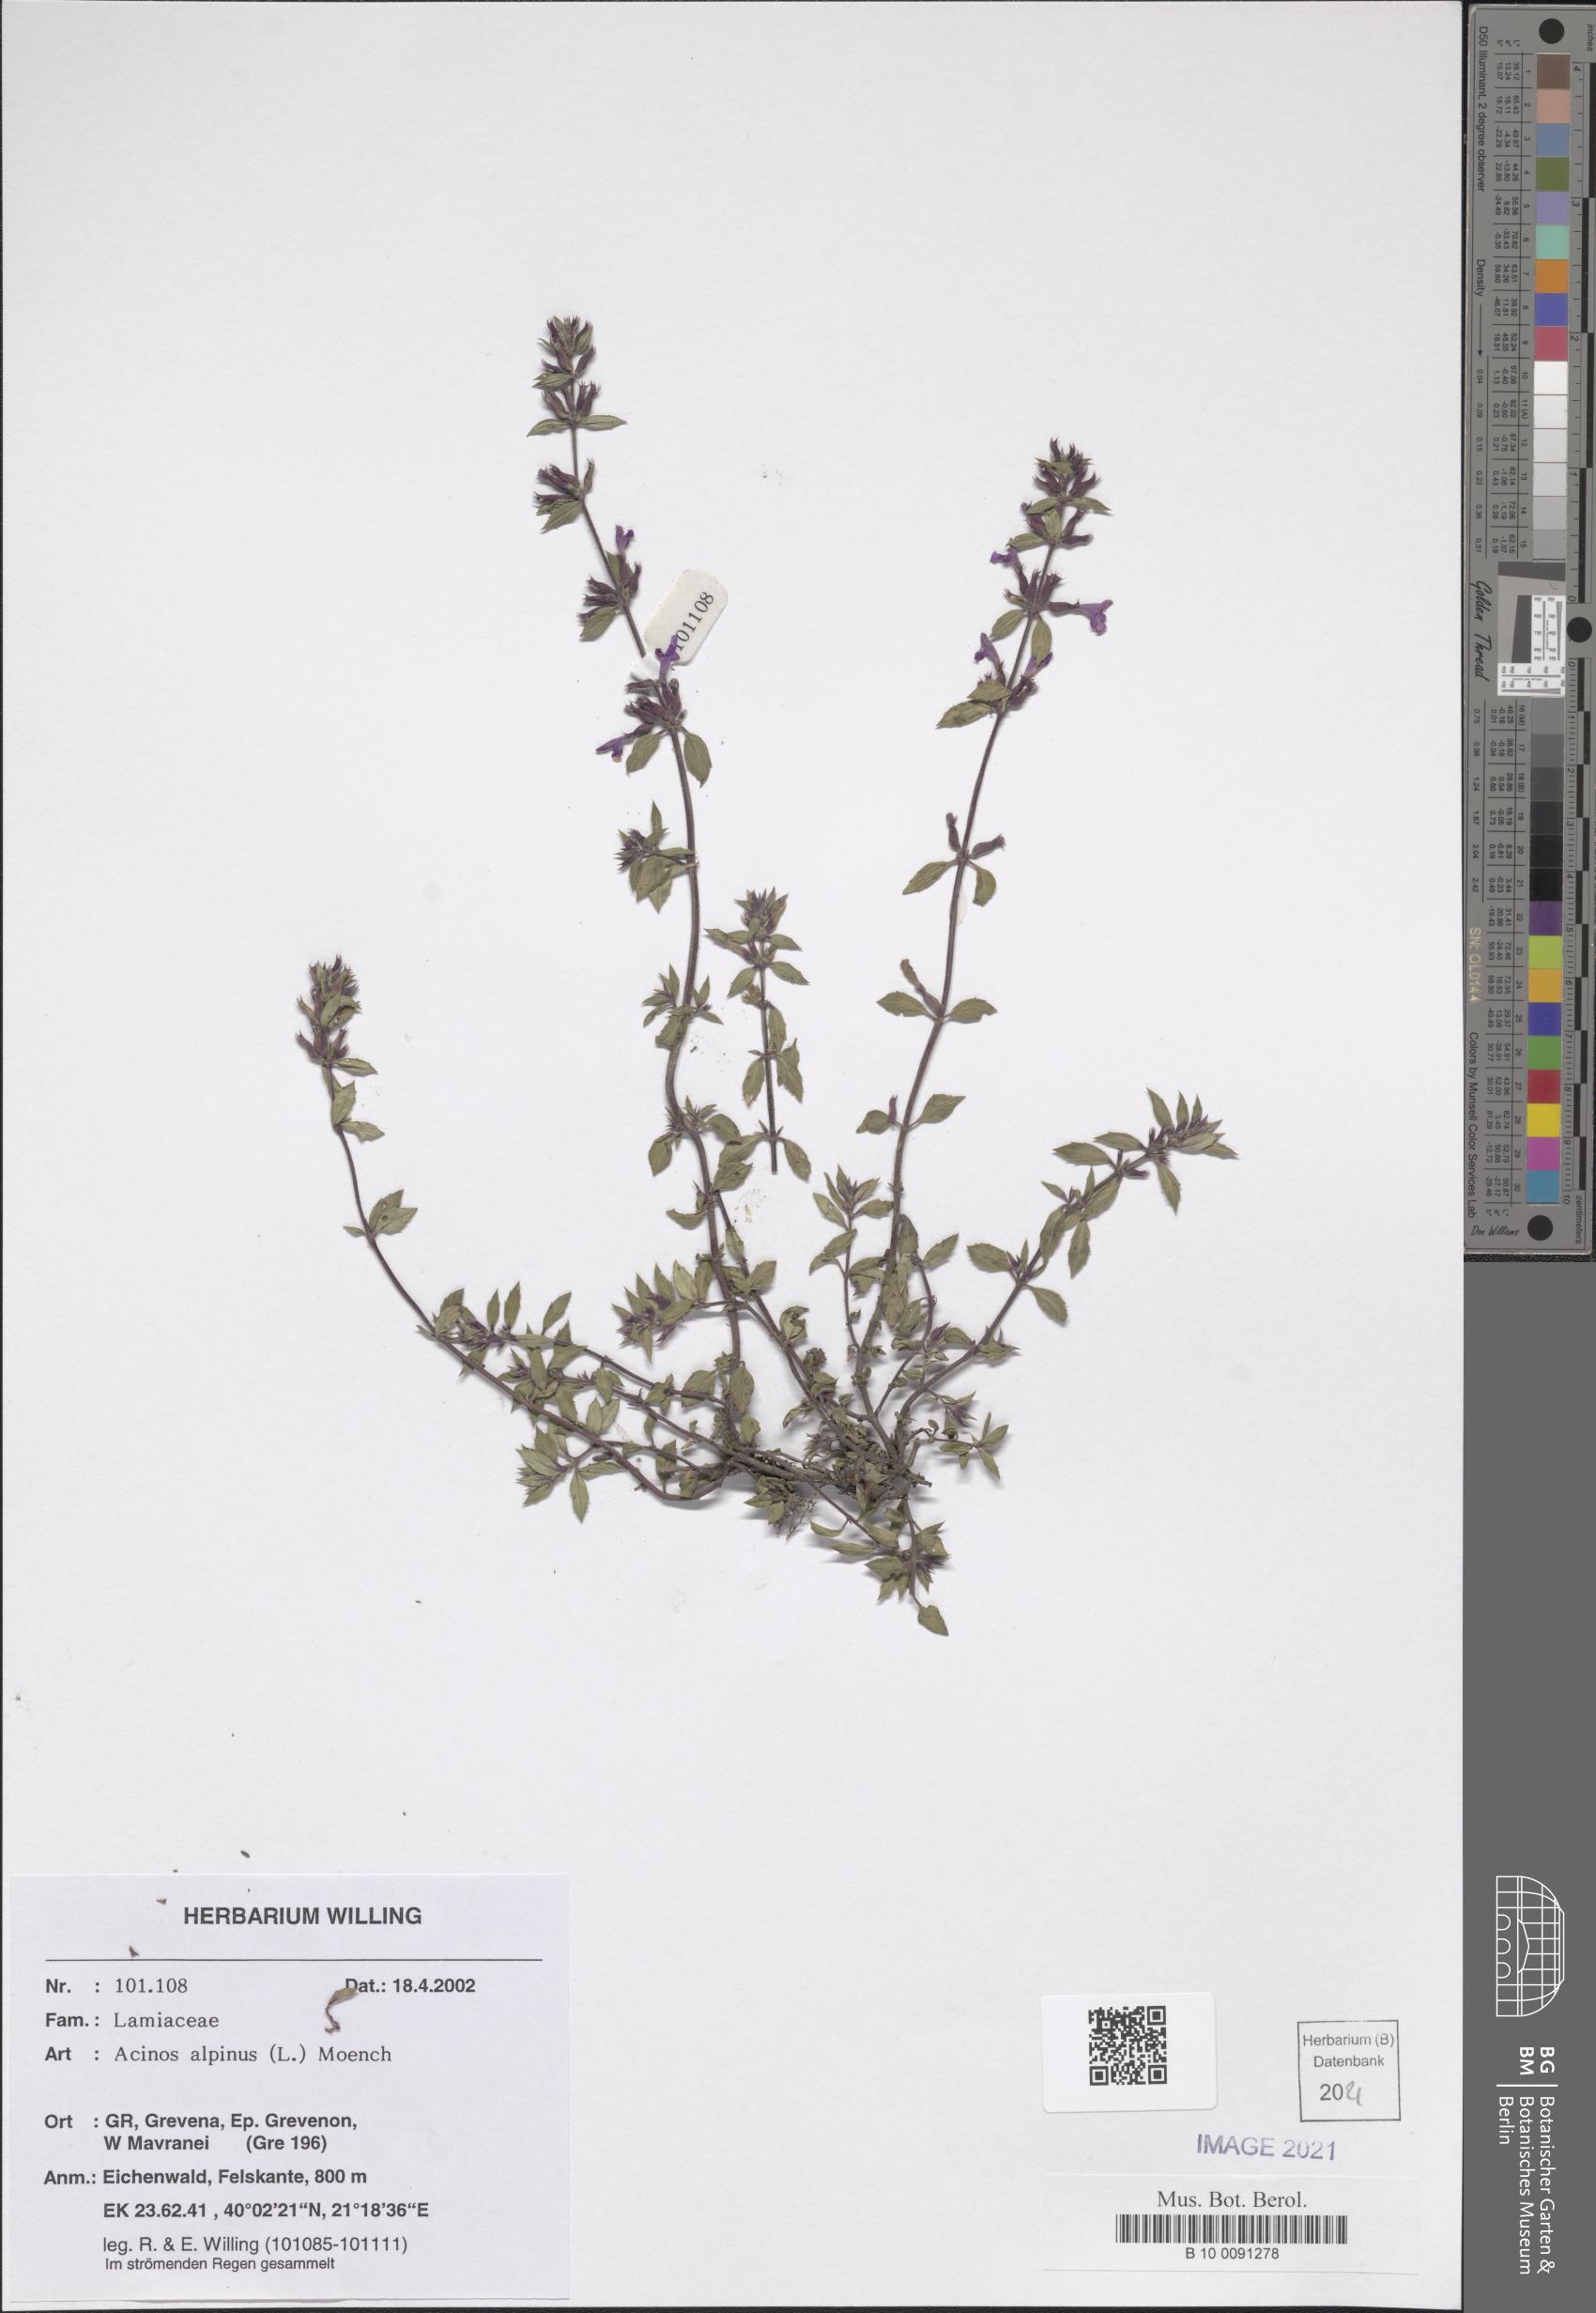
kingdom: Plantae
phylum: Tracheophyta
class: Magnoliopsida
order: Lamiales
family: Lamiaceae
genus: Clinopodium
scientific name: Clinopodium alpinum
